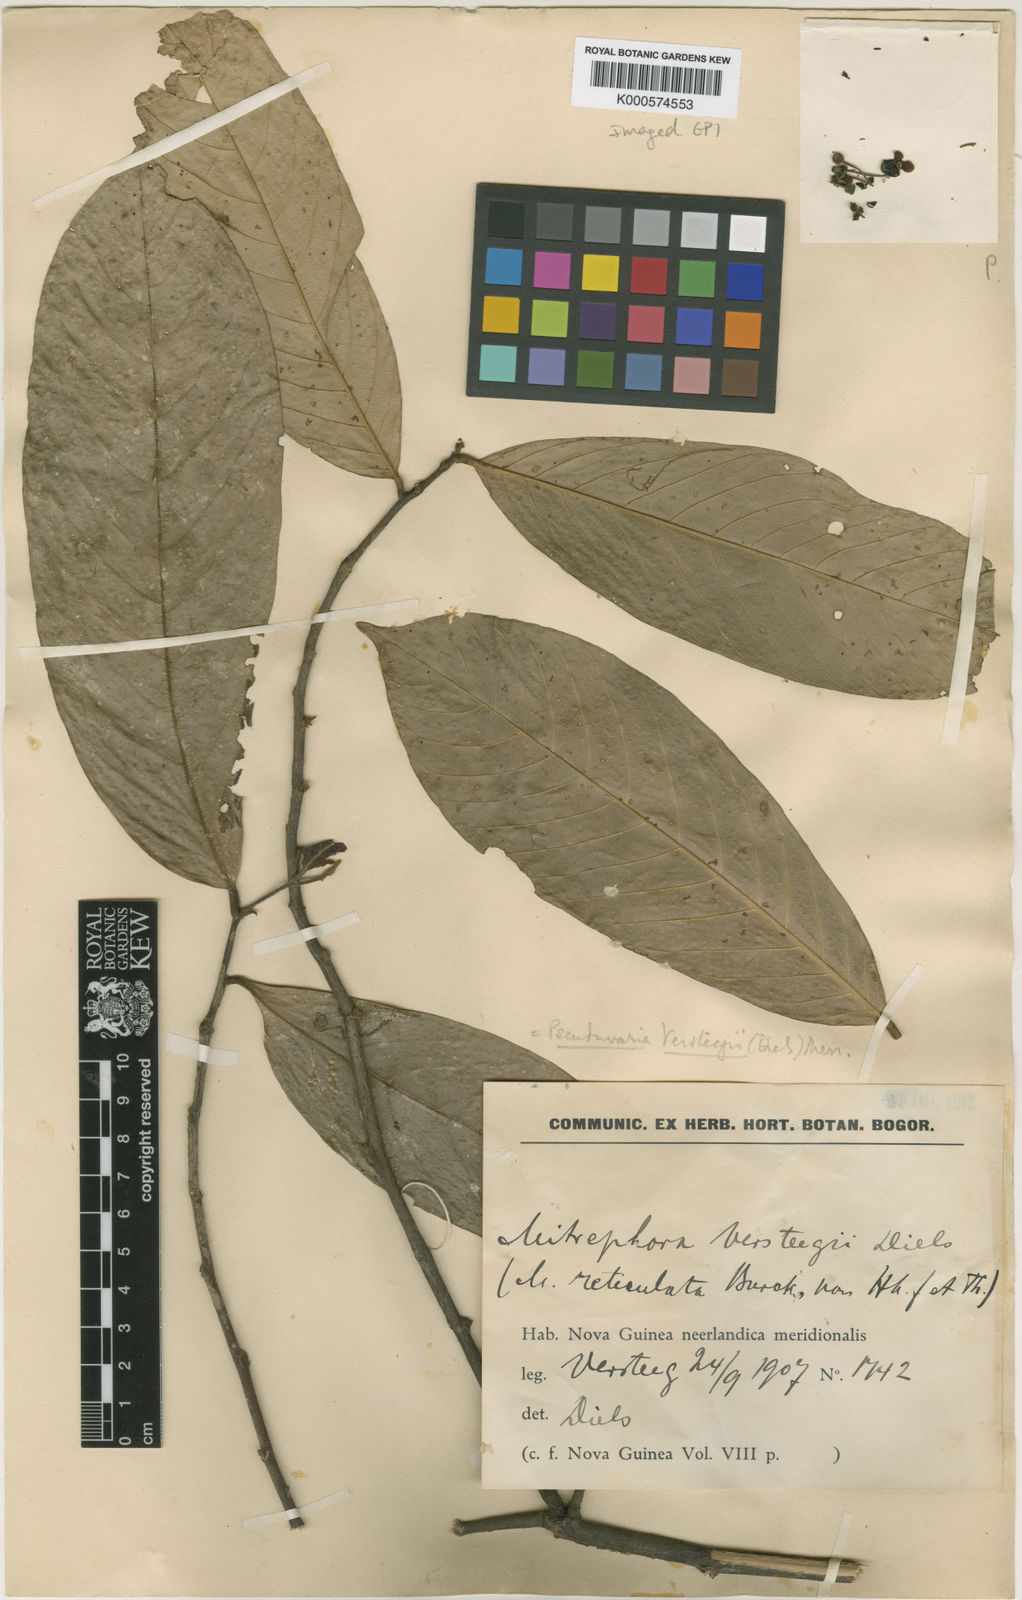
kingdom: Plantae
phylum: Tracheophyta
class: Magnoliopsida
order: Magnoliales
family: Annonaceae
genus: Pseuduvaria
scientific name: Pseuduvaria macrocarpa
